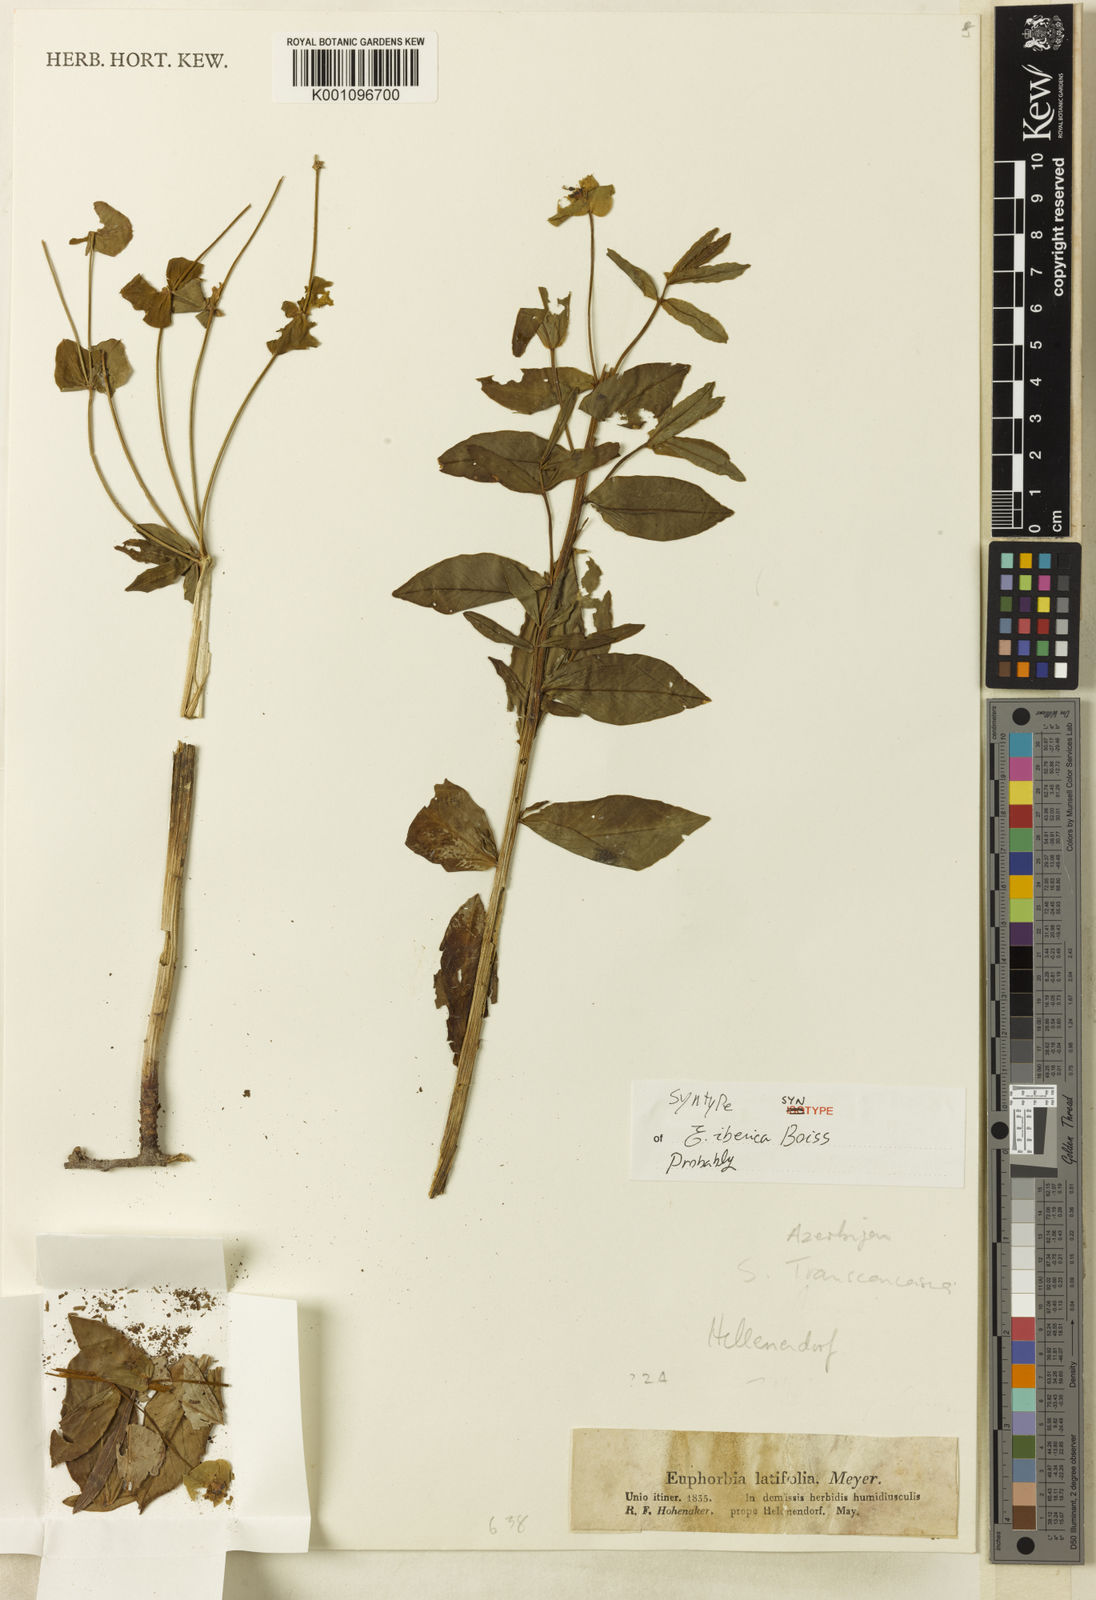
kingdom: Plantae
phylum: Tracheophyta
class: Magnoliopsida
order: Malpighiales
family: Euphorbiaceae
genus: Euphorbia
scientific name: Euphorbia iberica
